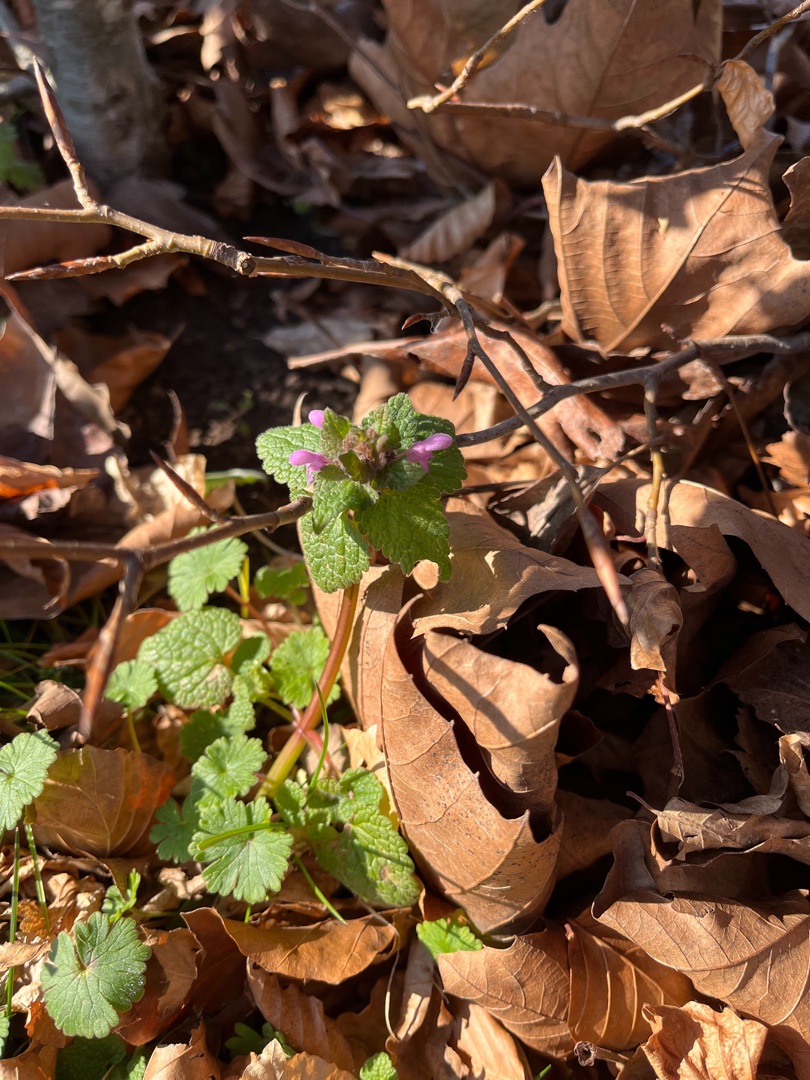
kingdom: Plantae
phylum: Tracheophyta
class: Magnoliopsida
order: Lamiales
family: Lamiaceae
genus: Lamium
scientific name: Lamium purpureum
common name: Rød tvetand
